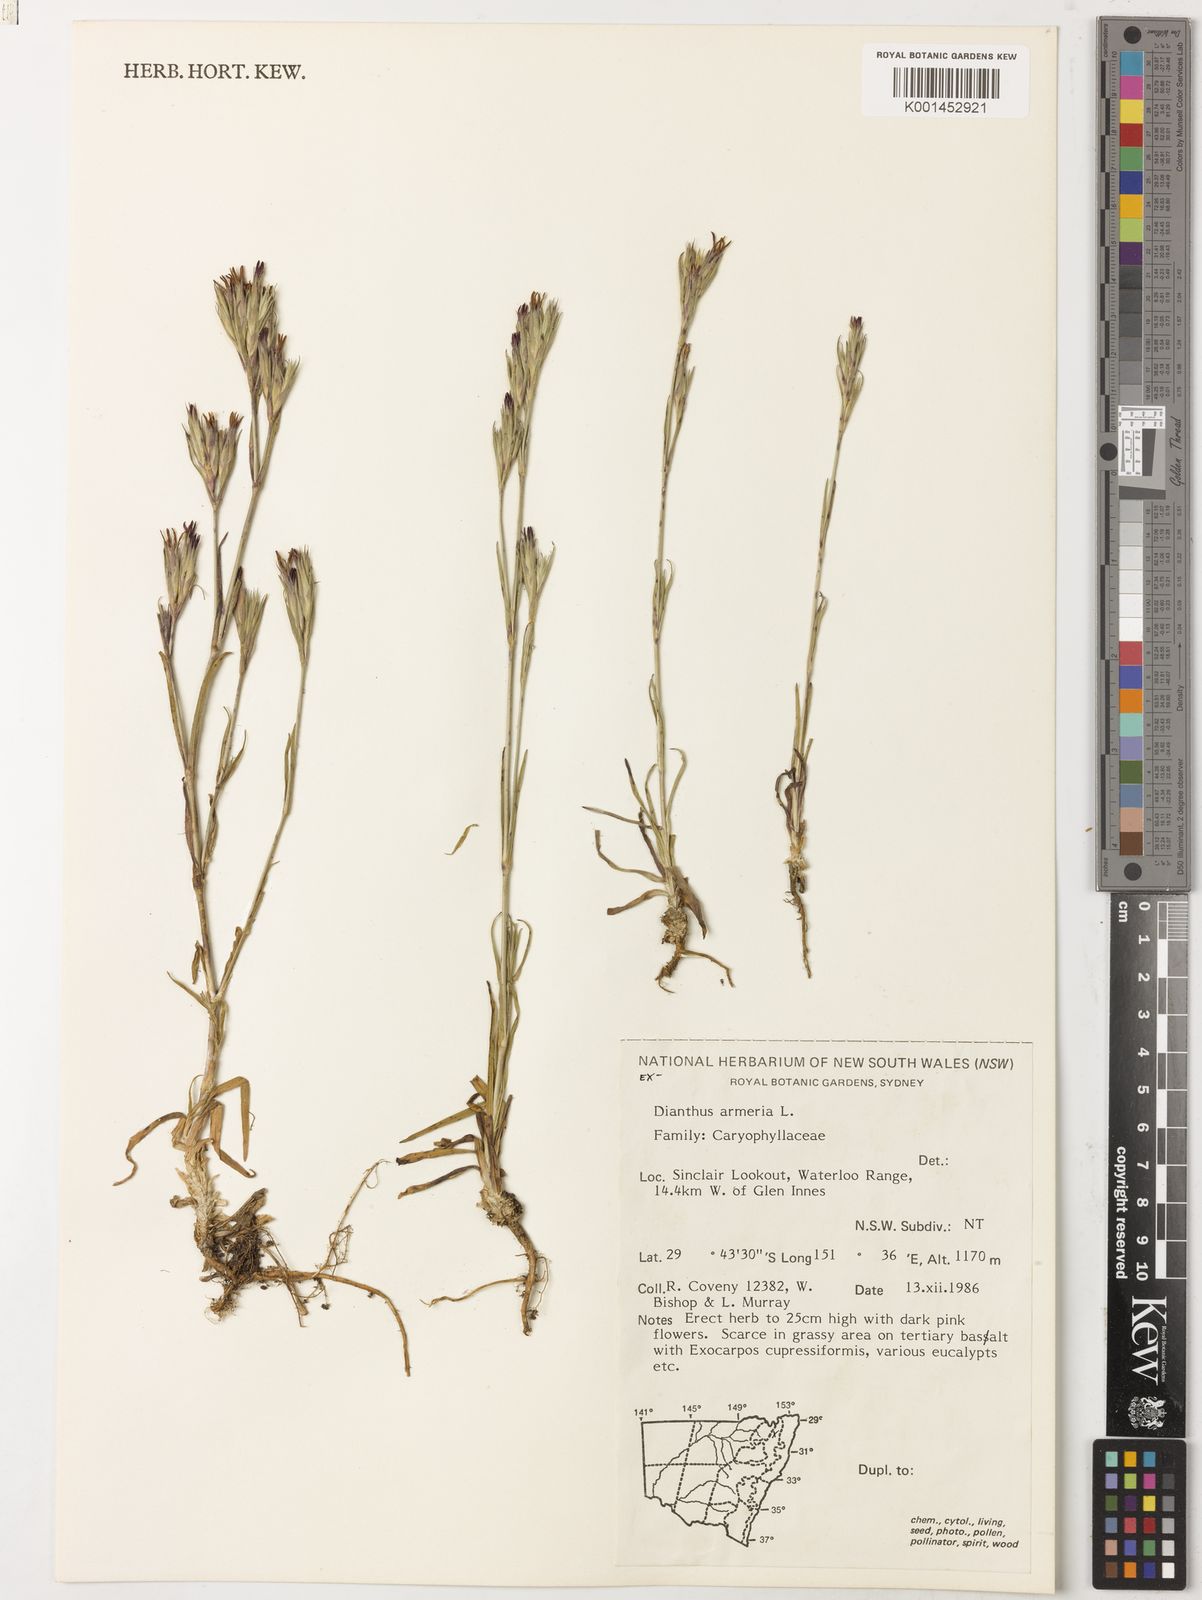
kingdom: Plantae
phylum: Tracheophyta
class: Magnoliopsida
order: Caryophyllales
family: Caryophyllaceae
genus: Dianthus
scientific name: Dianthus armeria
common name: Deptford pink
